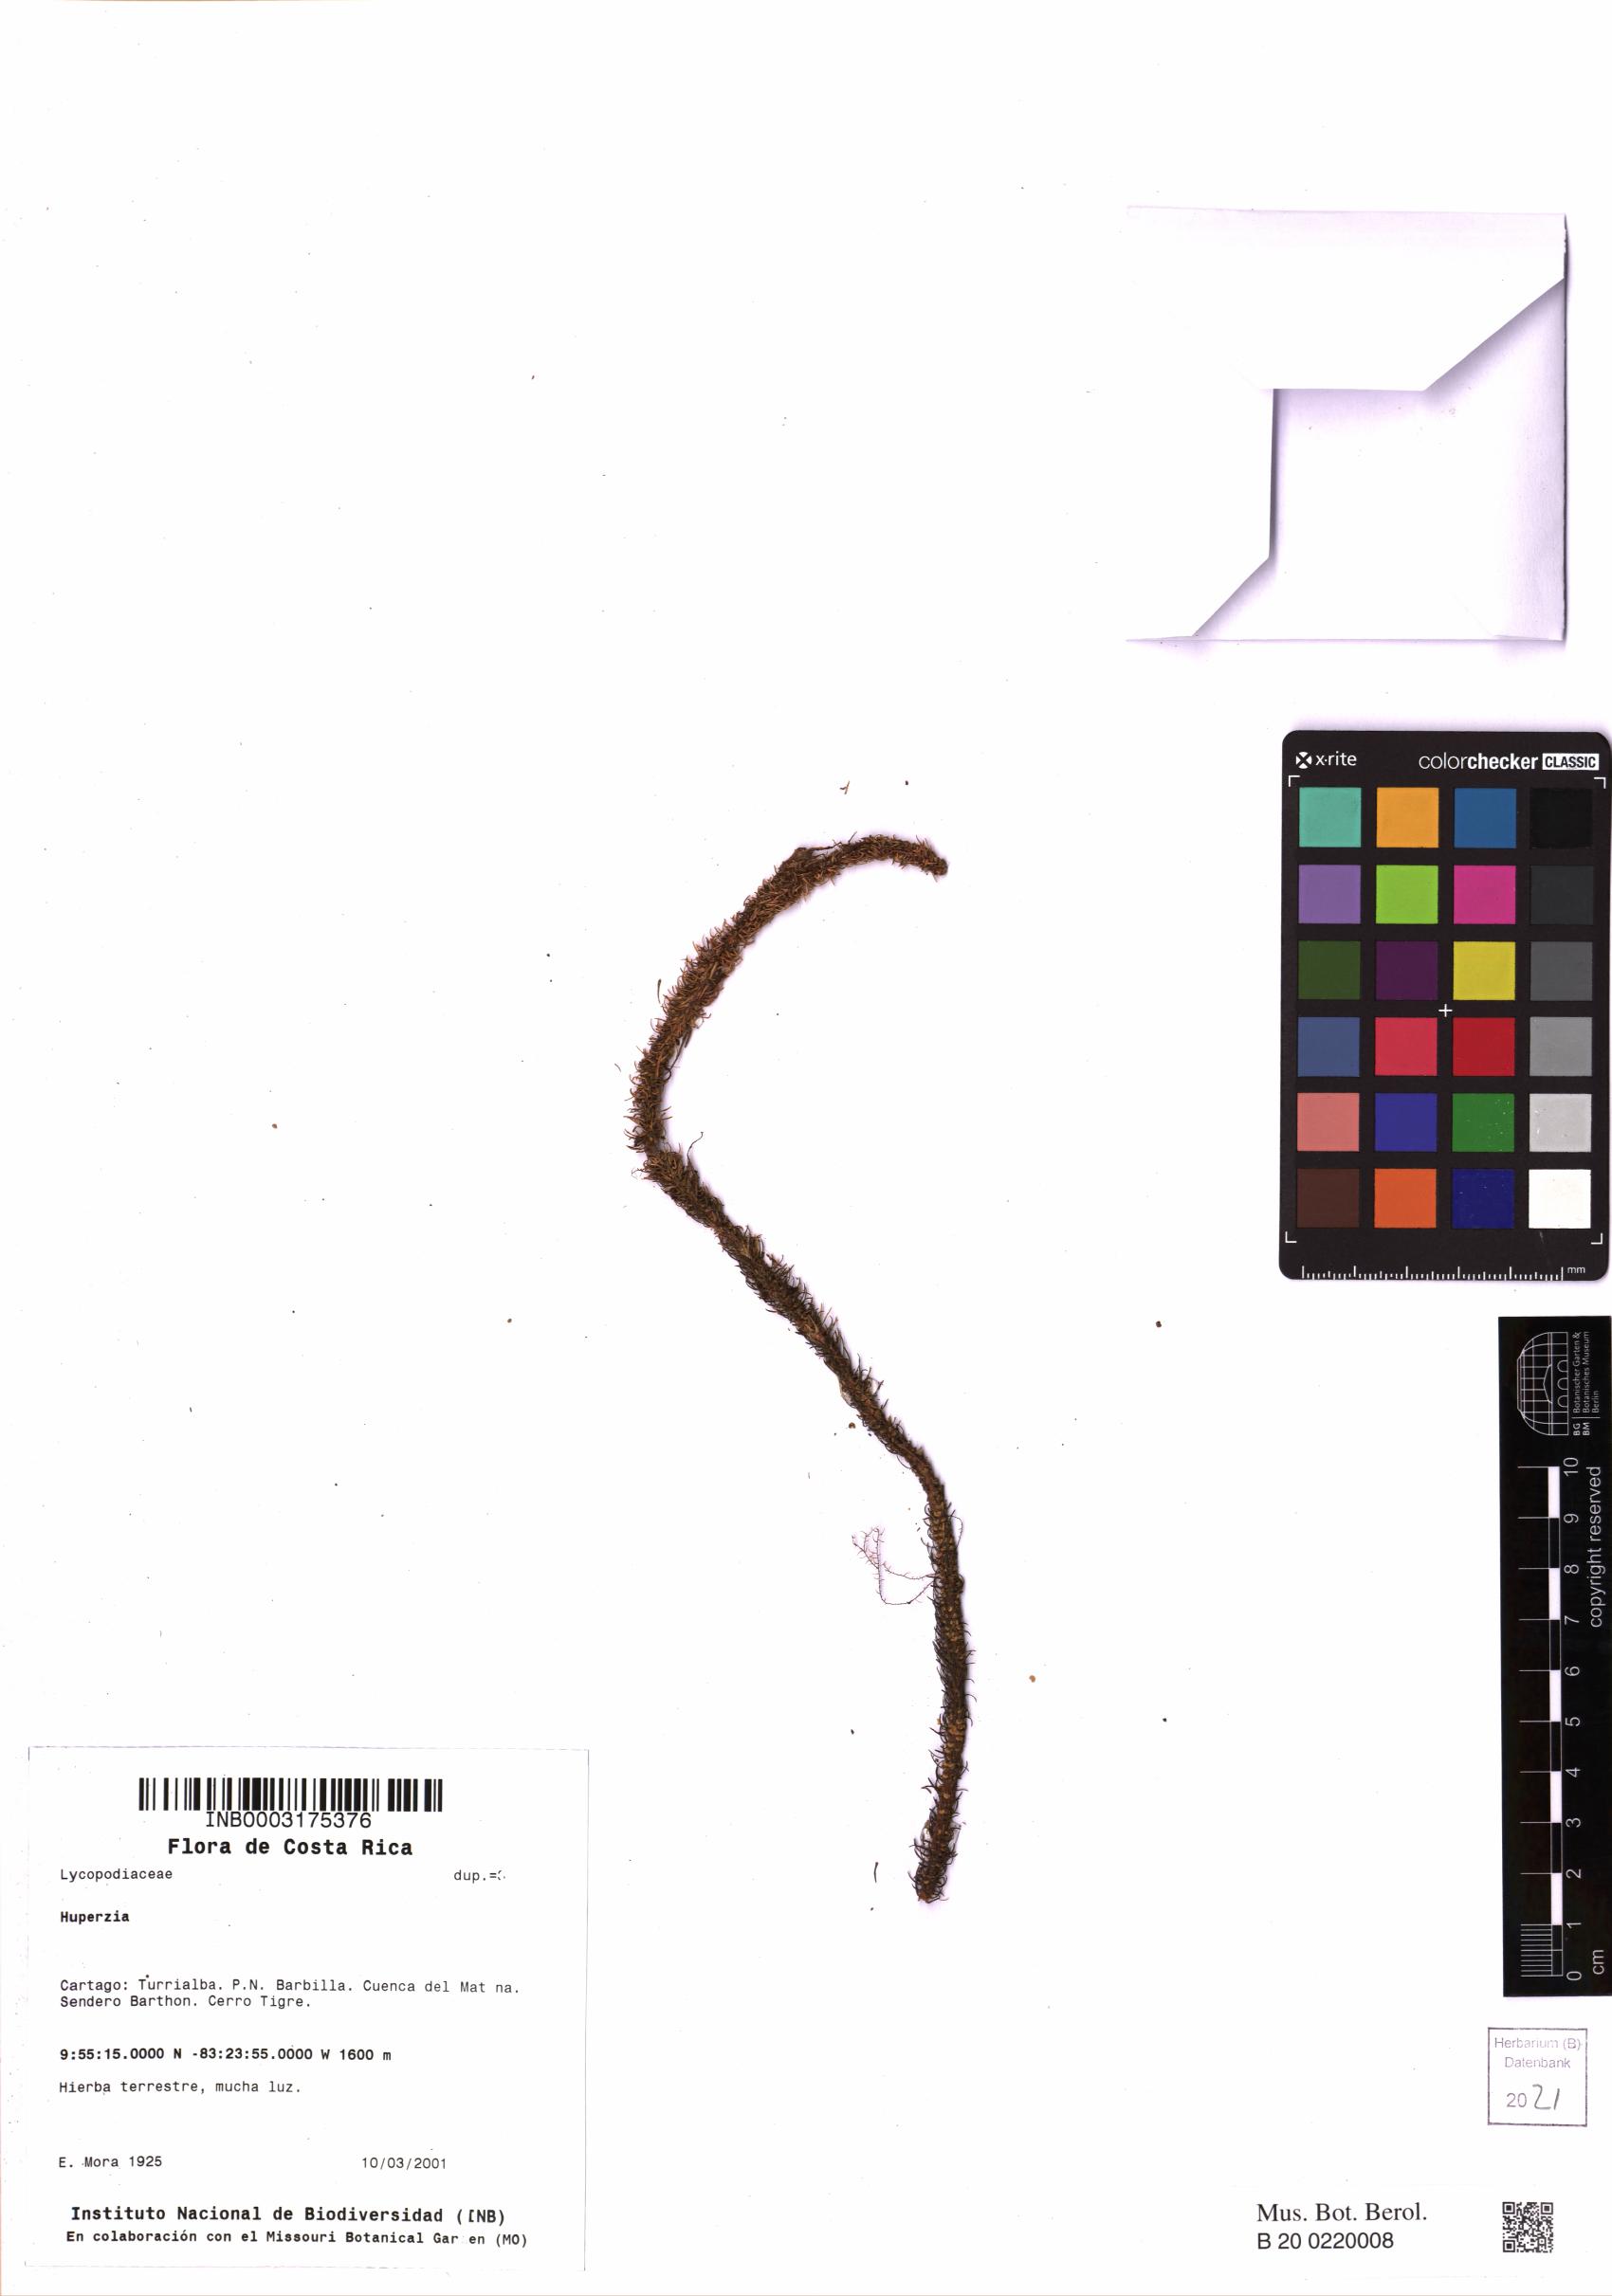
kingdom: Plantae
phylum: Tracheophyta
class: Lycopodiopsida
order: Lycopodiales
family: Lycopodiaceae
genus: Phlegmariurus
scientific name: Phlegmariurus acerosus
